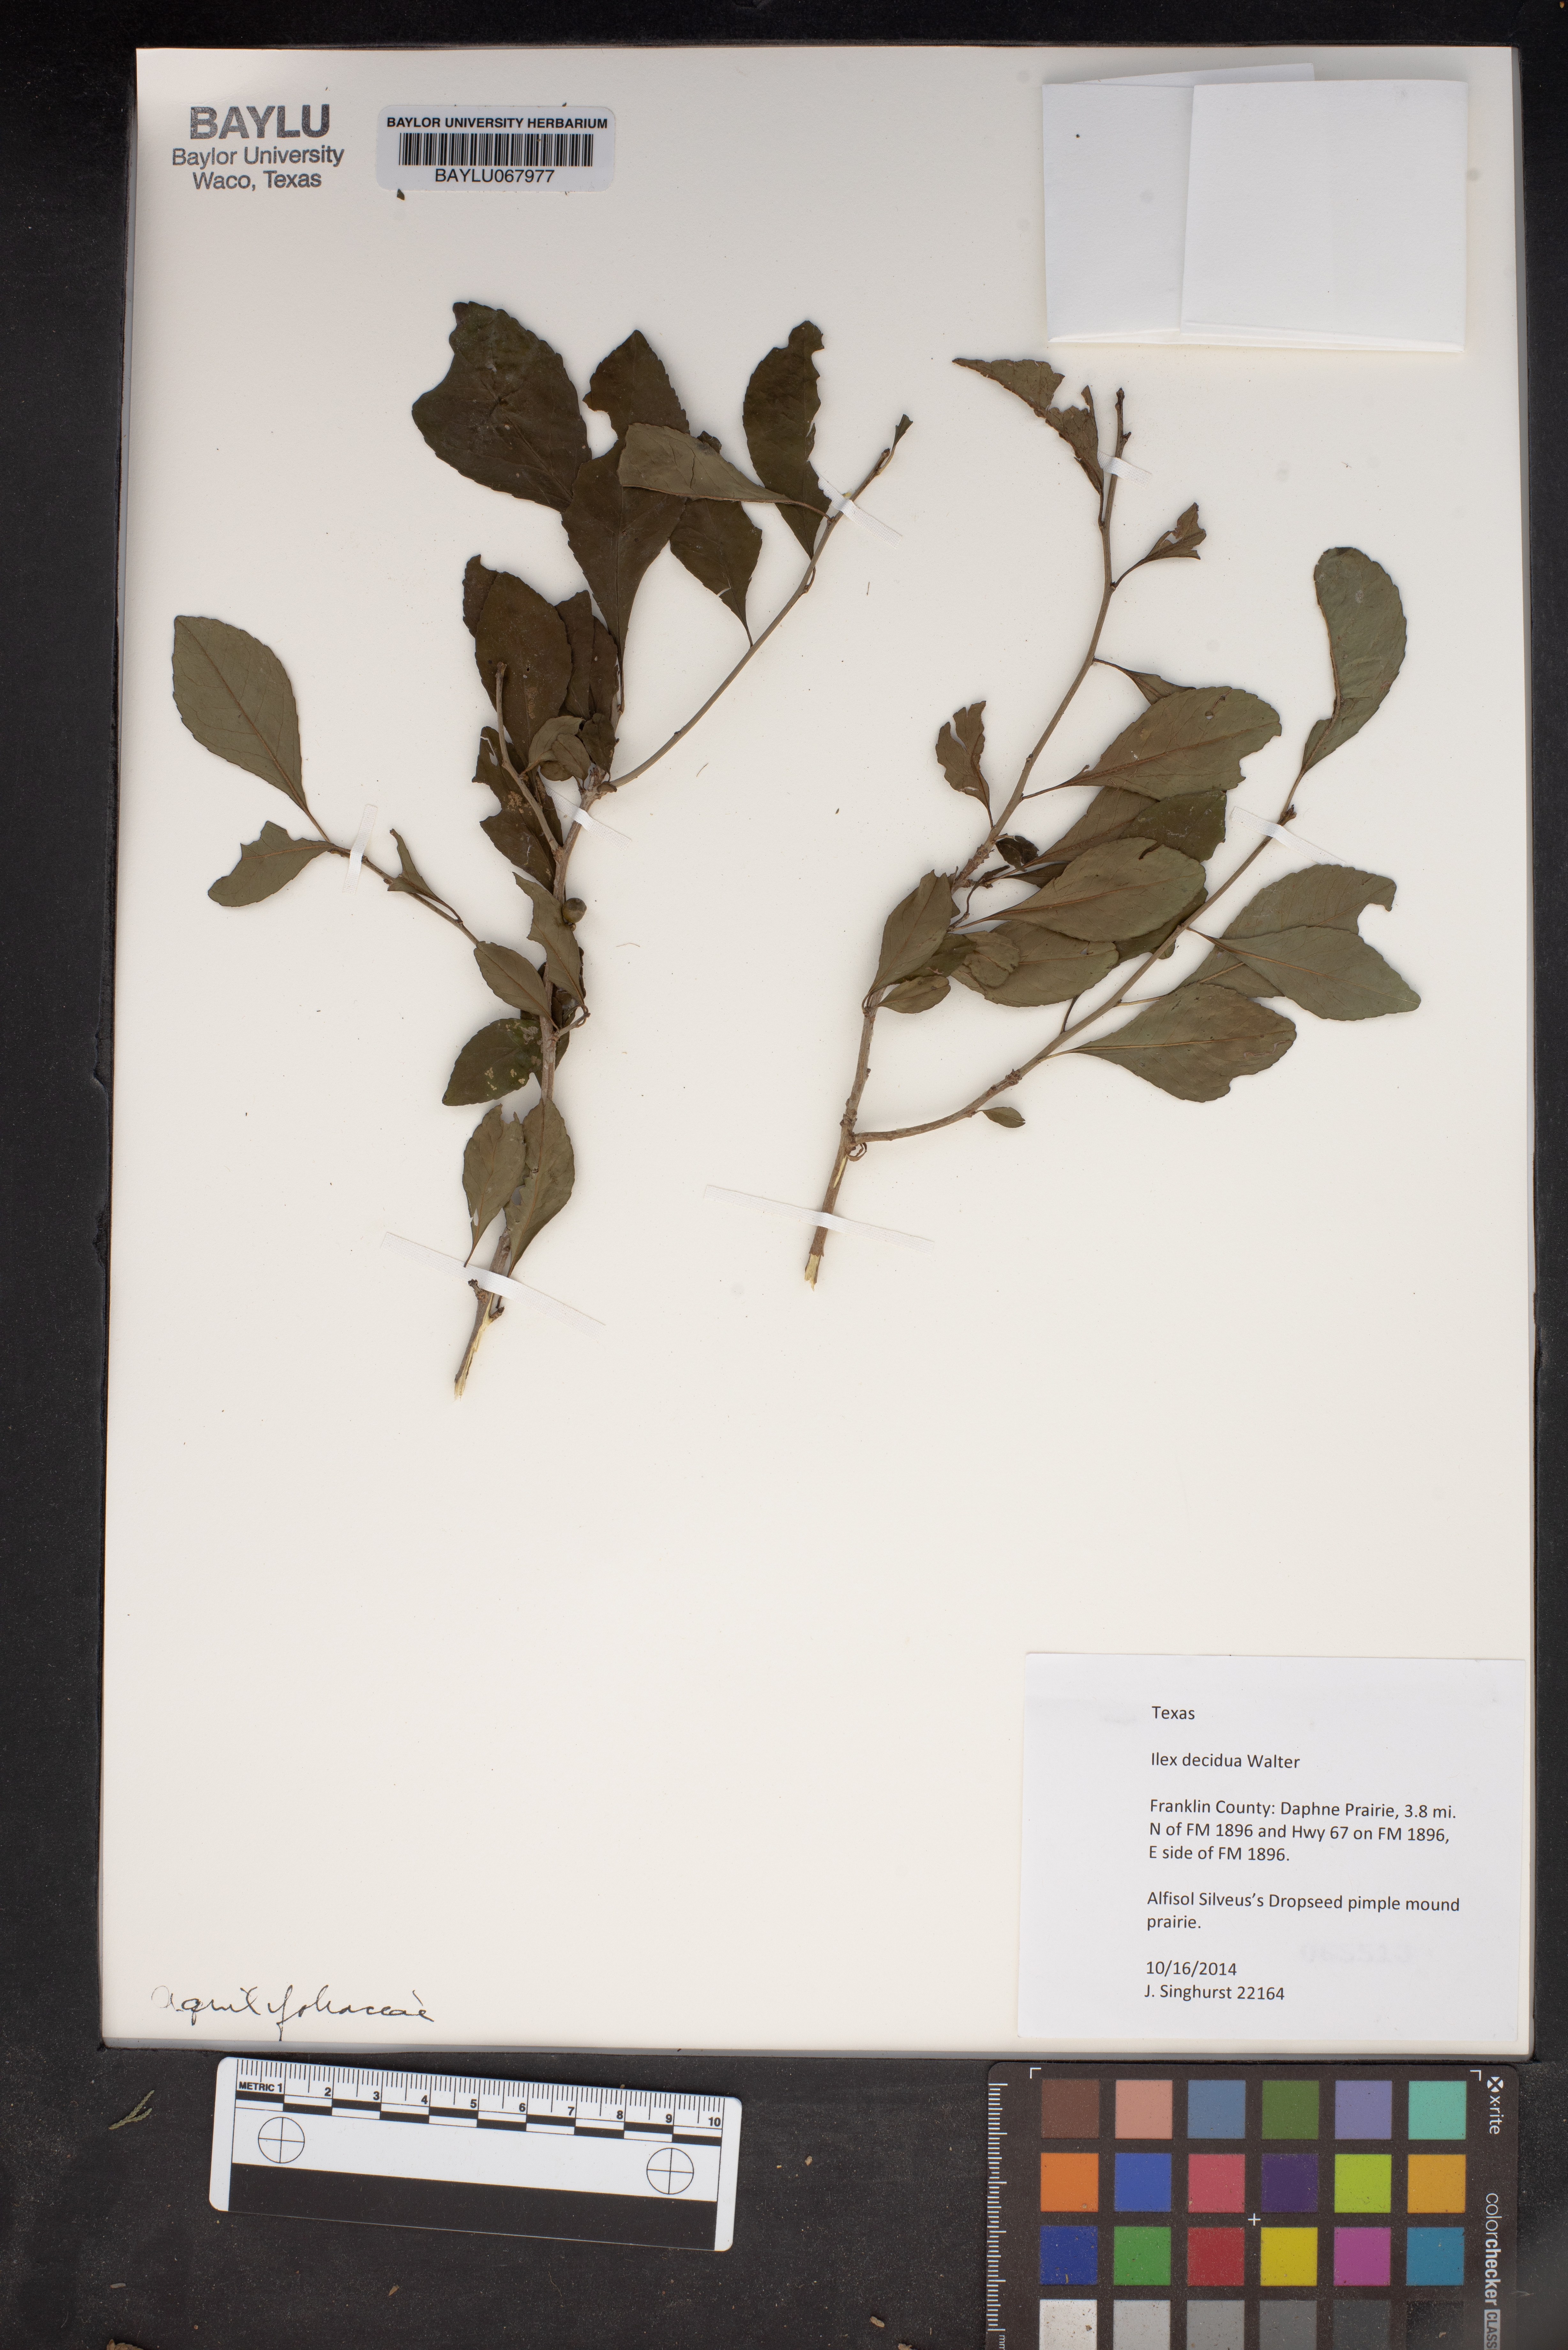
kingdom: Plantae
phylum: Tracheophyta
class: Magnoliopsida
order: Aquifoliales
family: Aquifoliaceae
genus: Ilex
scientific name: Ilex decidua
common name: Possum-haw
